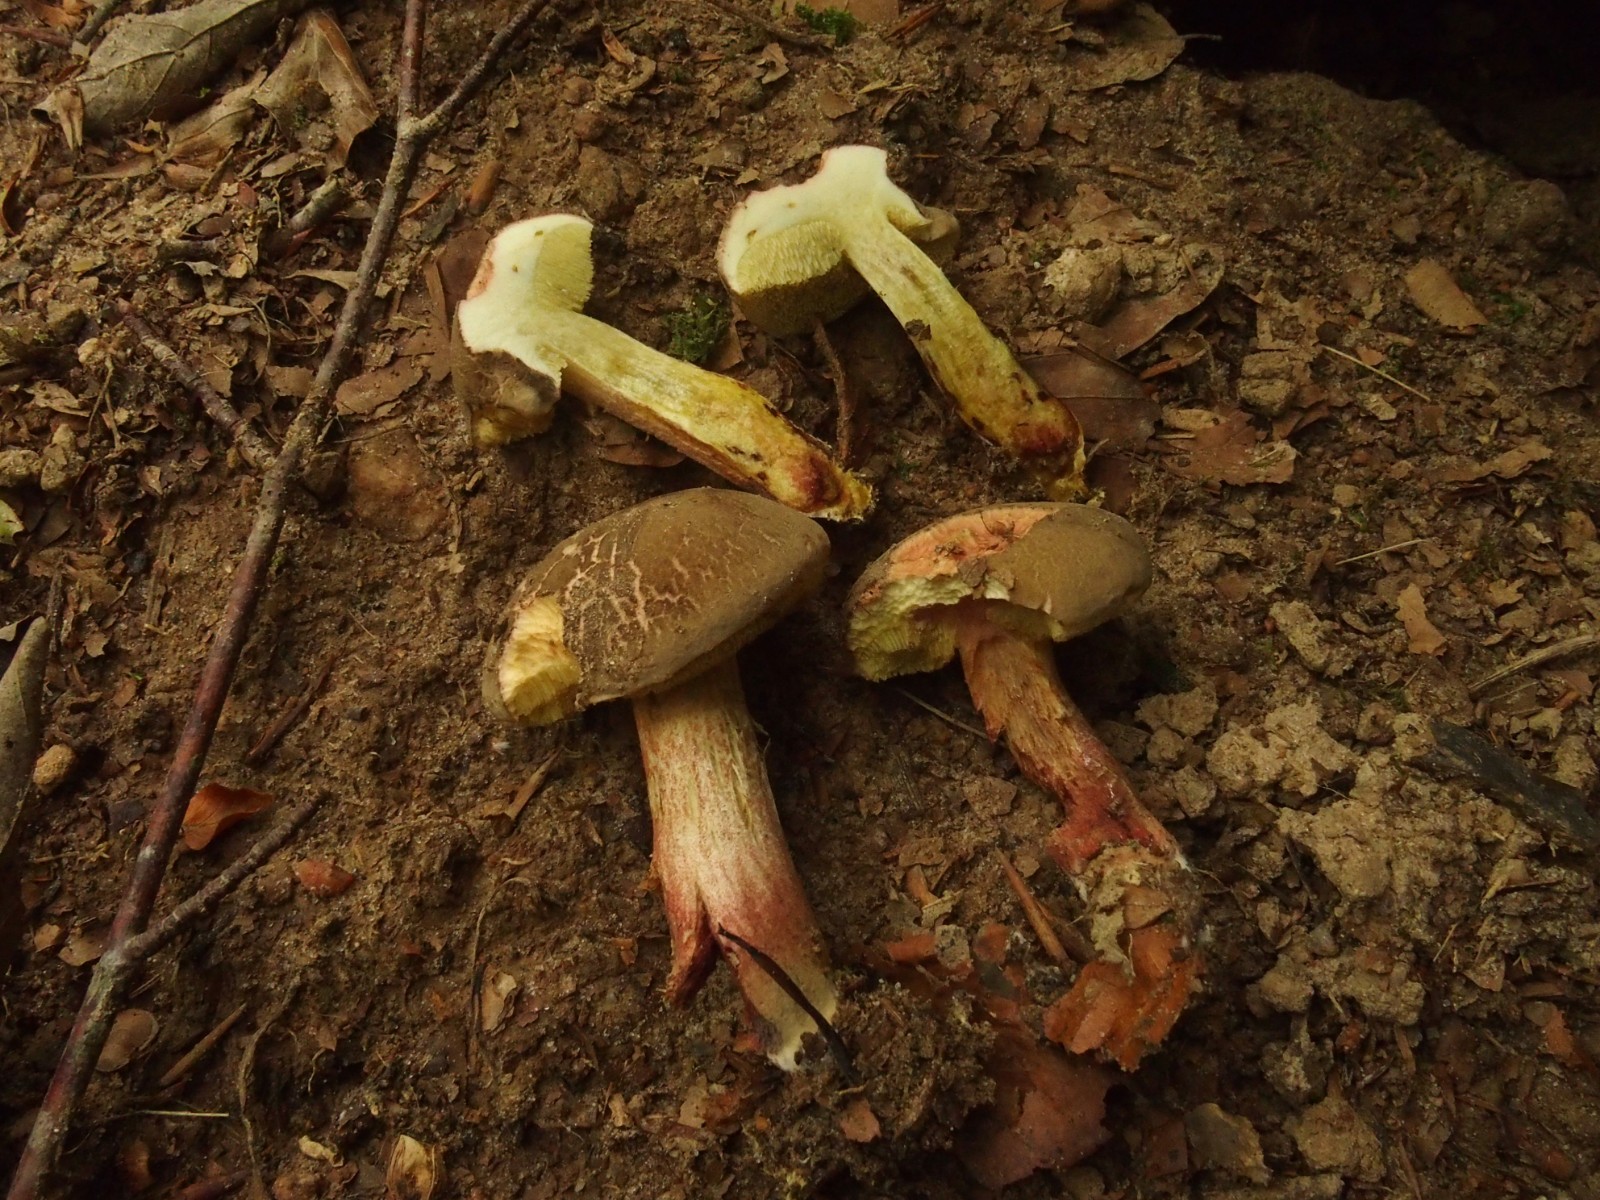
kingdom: Fungi
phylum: Basidiomycota
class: Agaricomycetes
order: Boletales
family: Boletaceae
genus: Xerocomellus
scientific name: Xerocomellus cisalpinus
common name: finsprukken rørhat
